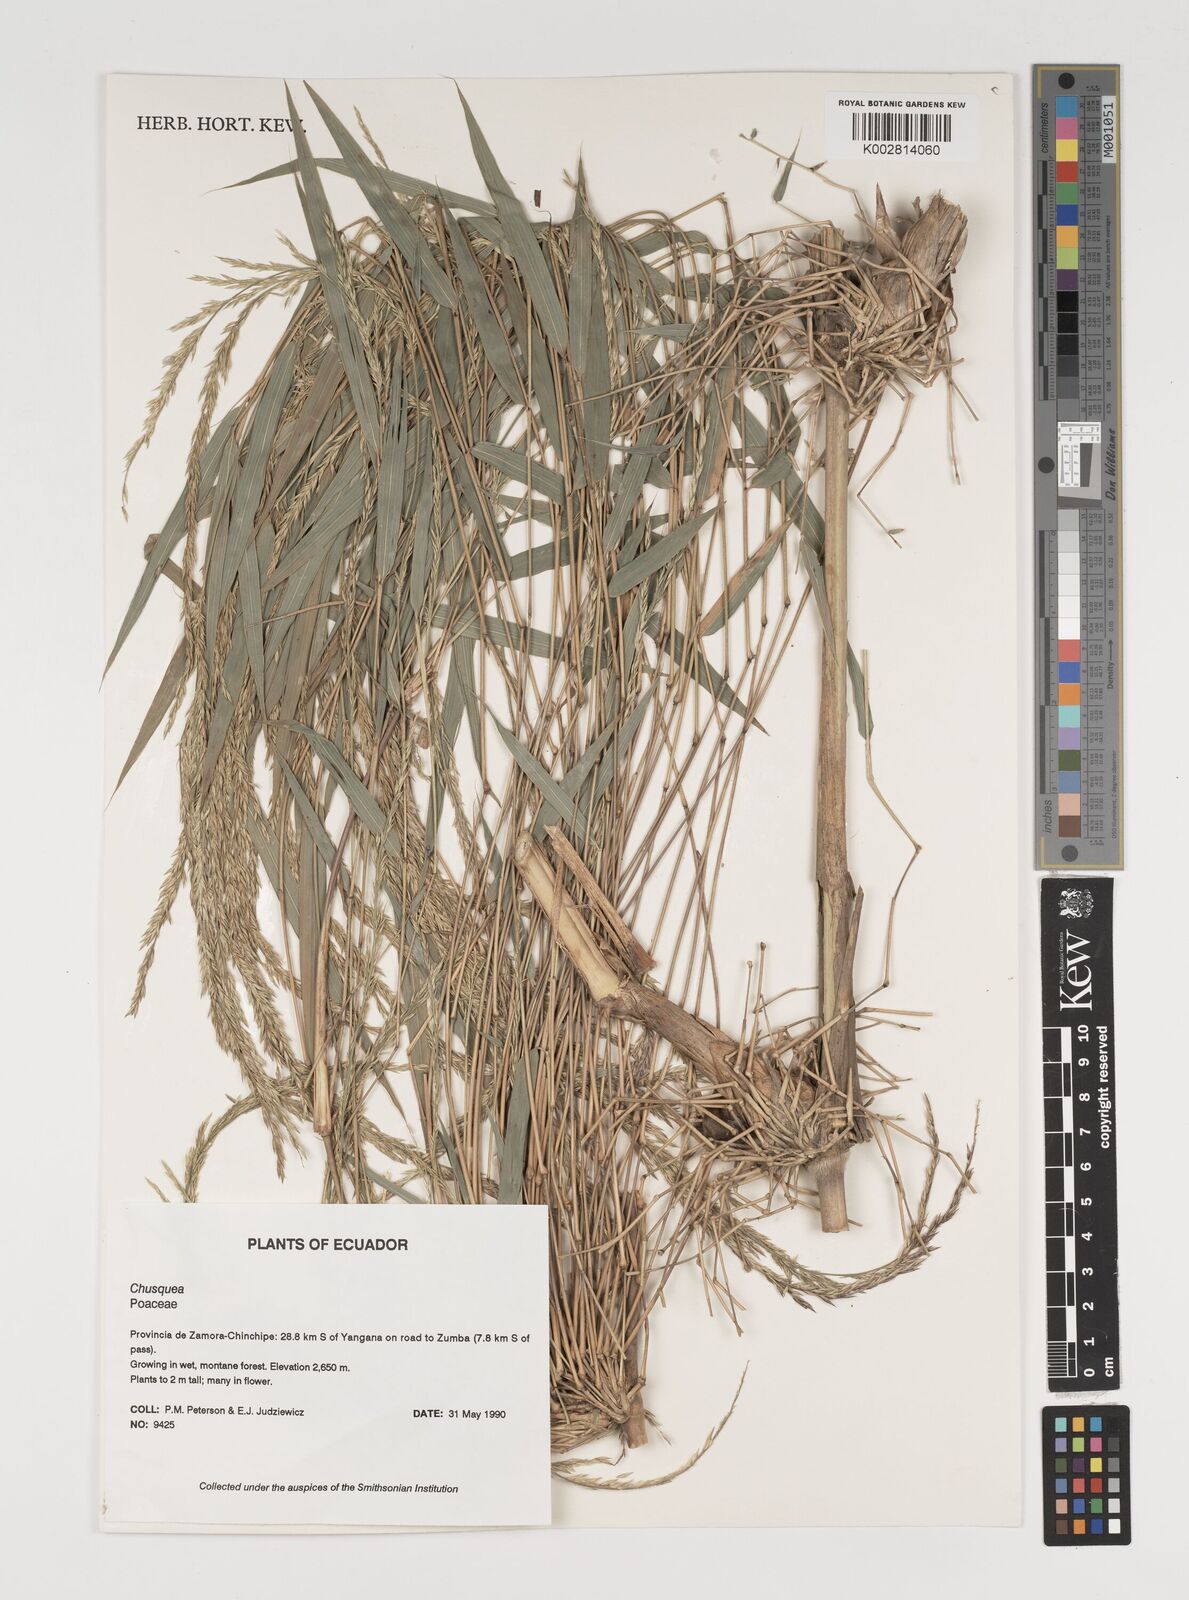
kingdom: Plantae
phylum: Tracheophyta
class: Liliopsida
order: Poales
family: Poaceae
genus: Chusquea
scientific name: Chusquea
